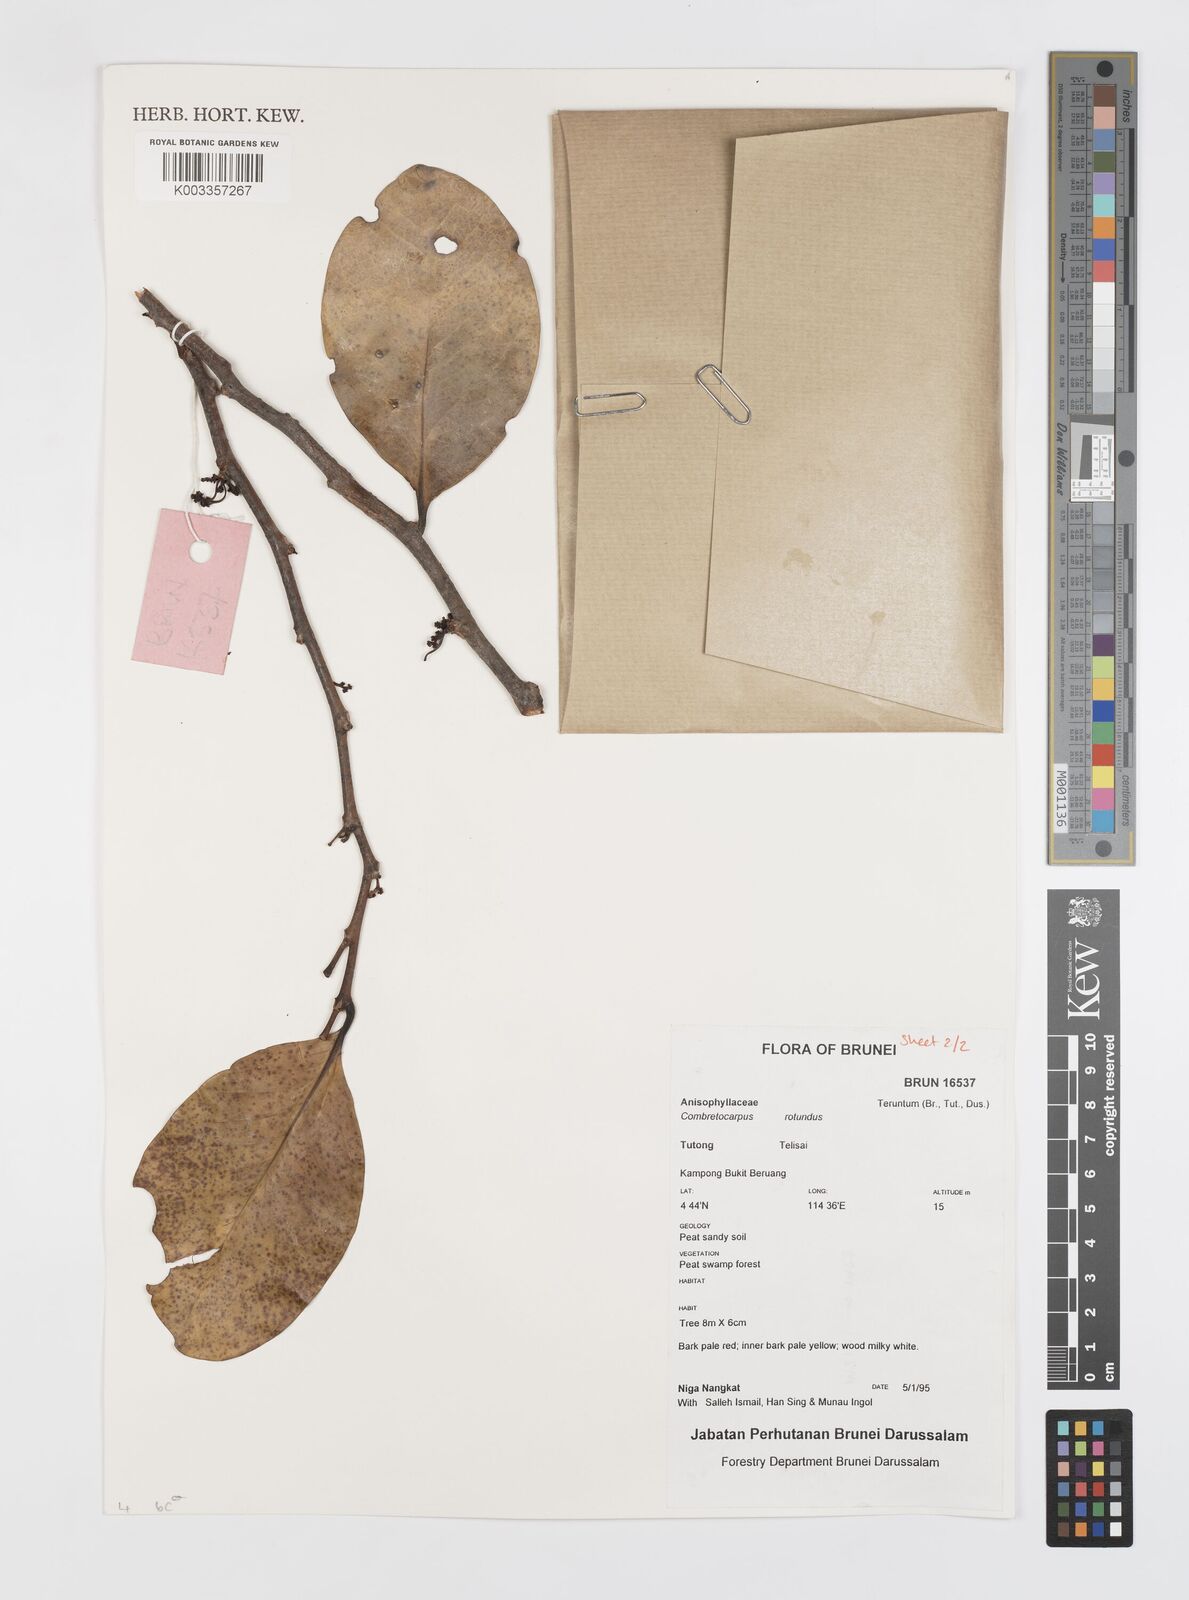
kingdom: Plantae
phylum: Tracheophyta
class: Magnoliopsida
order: Cucurbitales
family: Anisophylleaceae
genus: Combretocarpus
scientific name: Combretocarpus rotundatus
